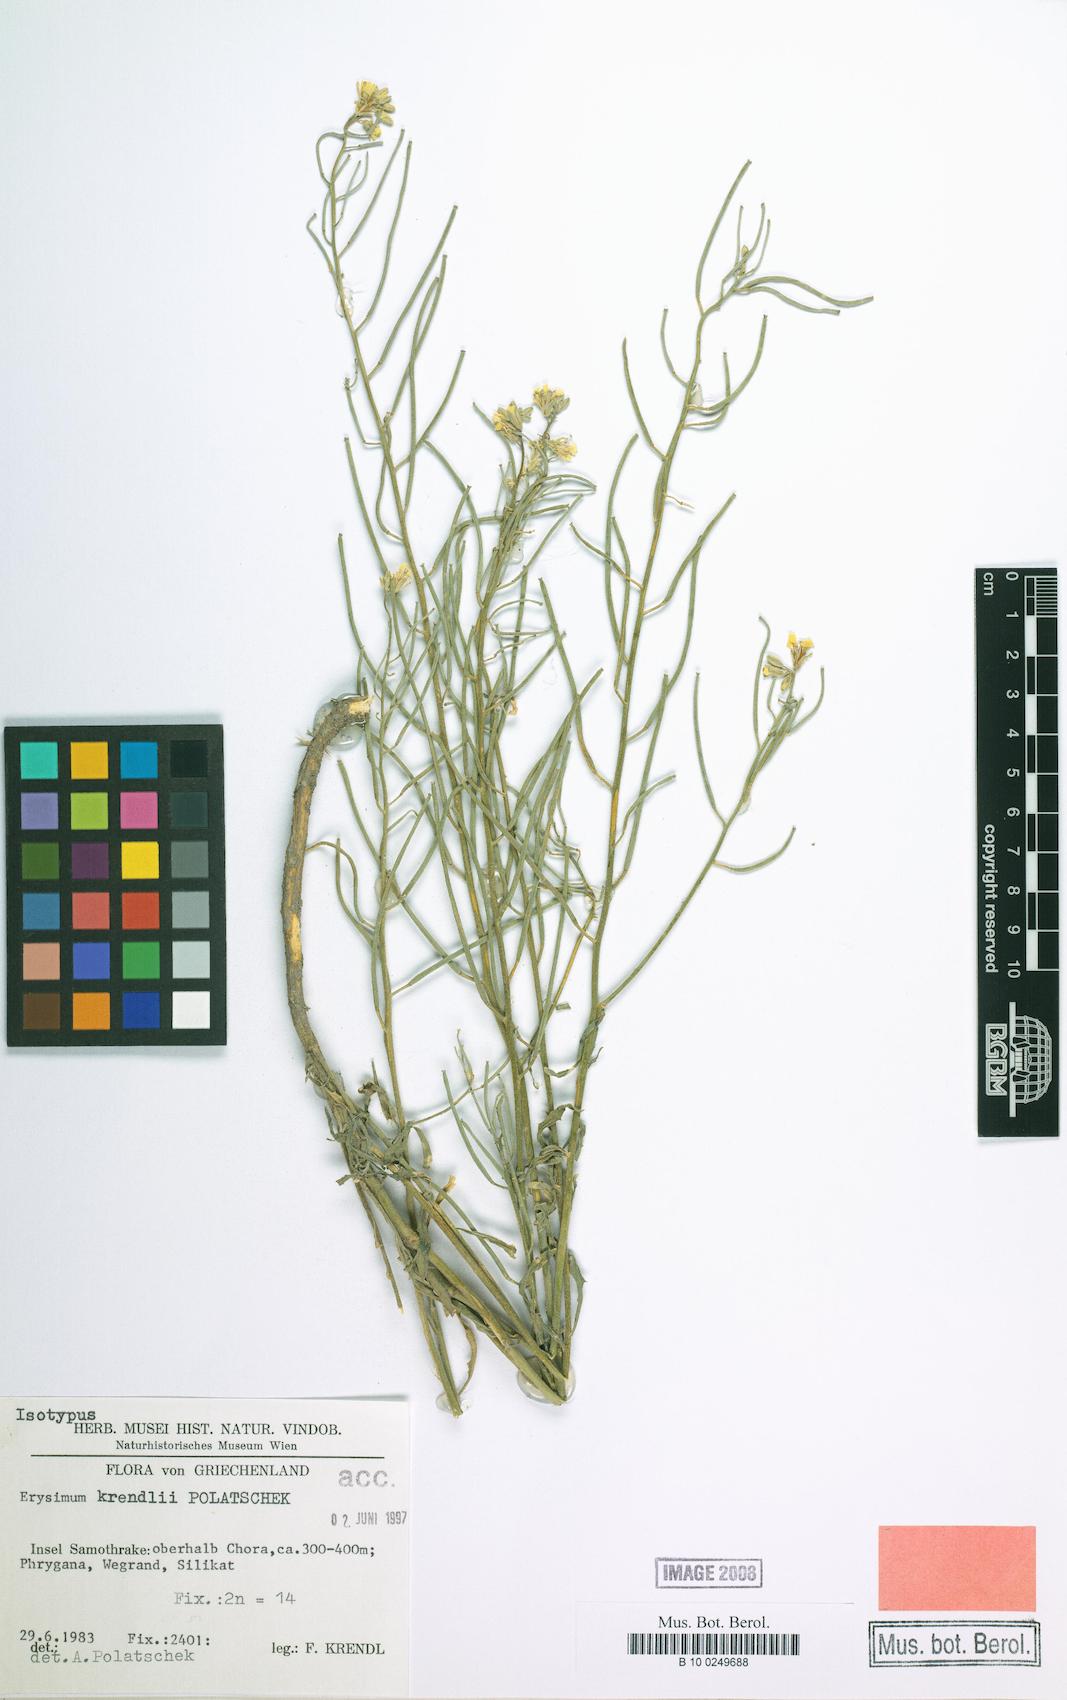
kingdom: Plantae
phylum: Tracheophyta
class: Magnoliopsida
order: Brassicales
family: Brassicaceae
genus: Erysimum
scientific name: Erysimum krendlii
